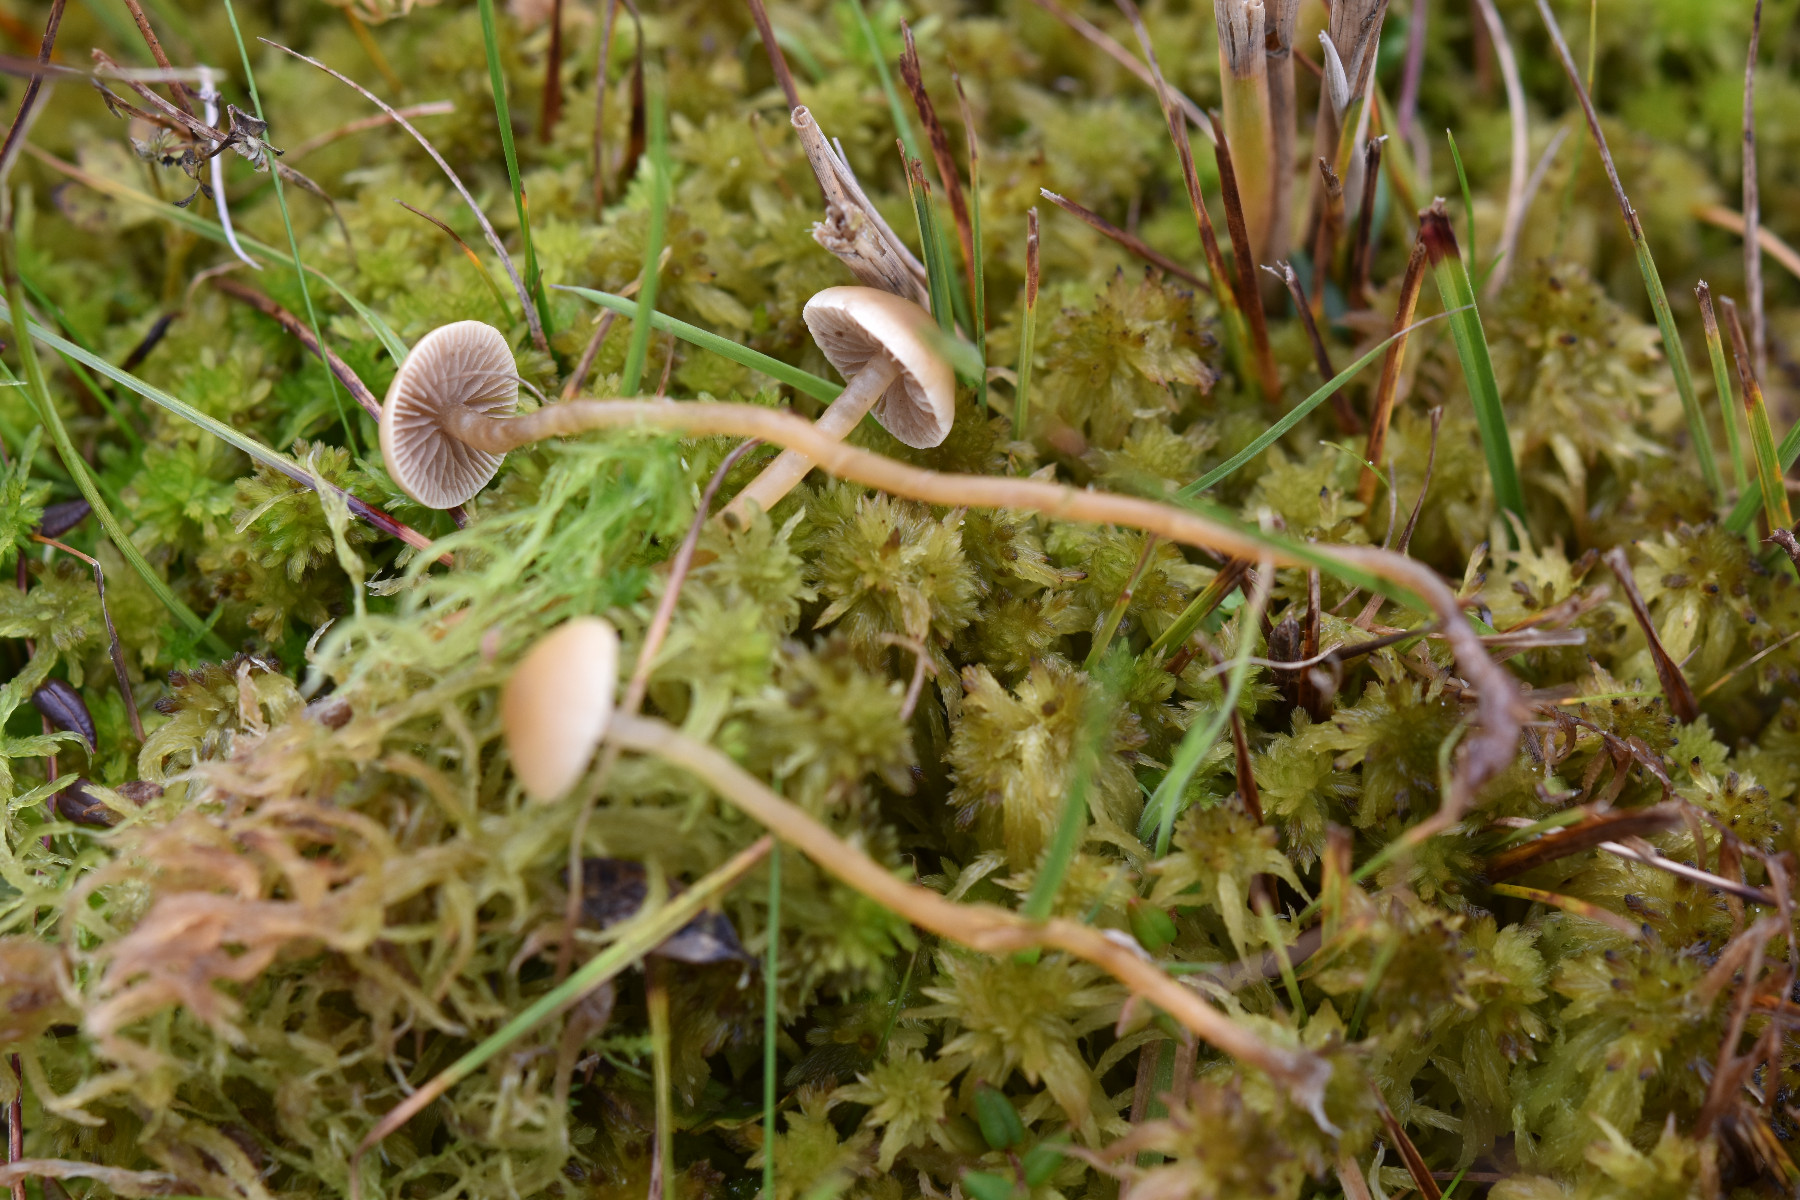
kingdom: Fungi
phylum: Basidiomycota
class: Agaricomycetes
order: Agaricales
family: Strophariaceae
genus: Hypholoma
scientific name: Hypholoma elongatum
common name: slank svovlhat
